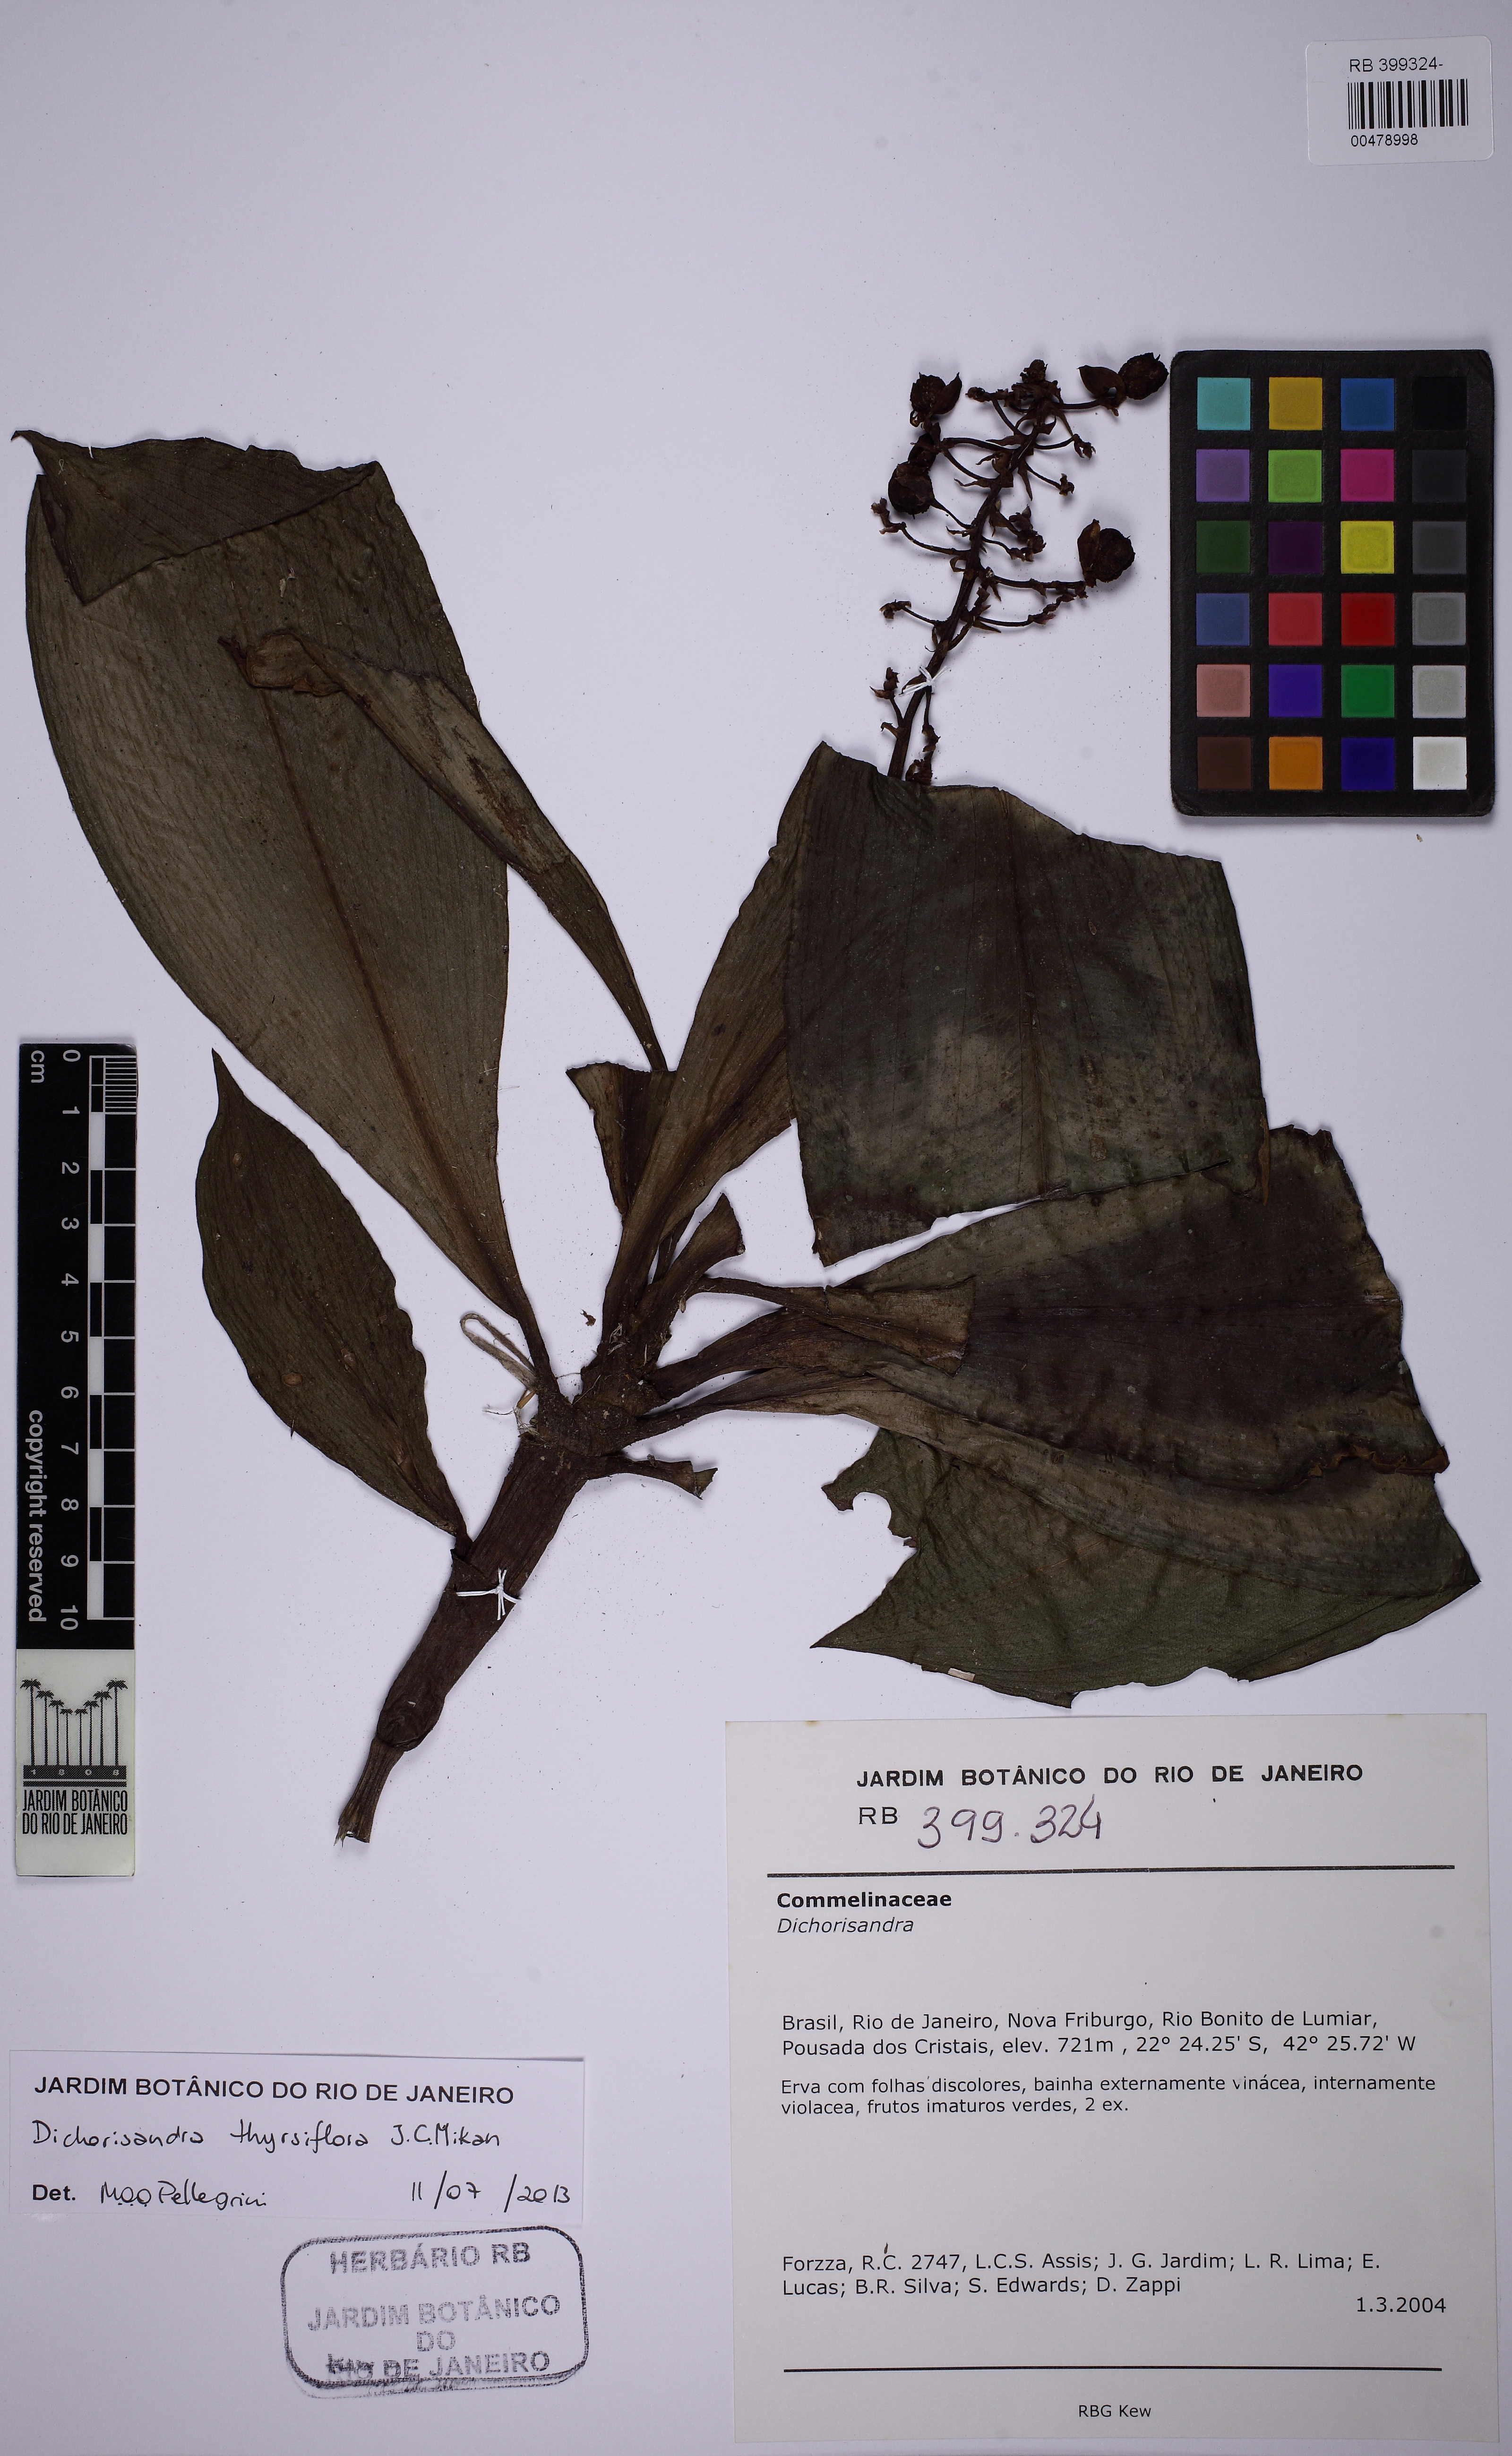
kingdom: Plantae
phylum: Tracheophyta
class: Liliopsida
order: Commelinales
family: Commelinaceae
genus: Dichorisandra
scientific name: Dichorisandra thyrsiflora
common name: Blue-ginger
